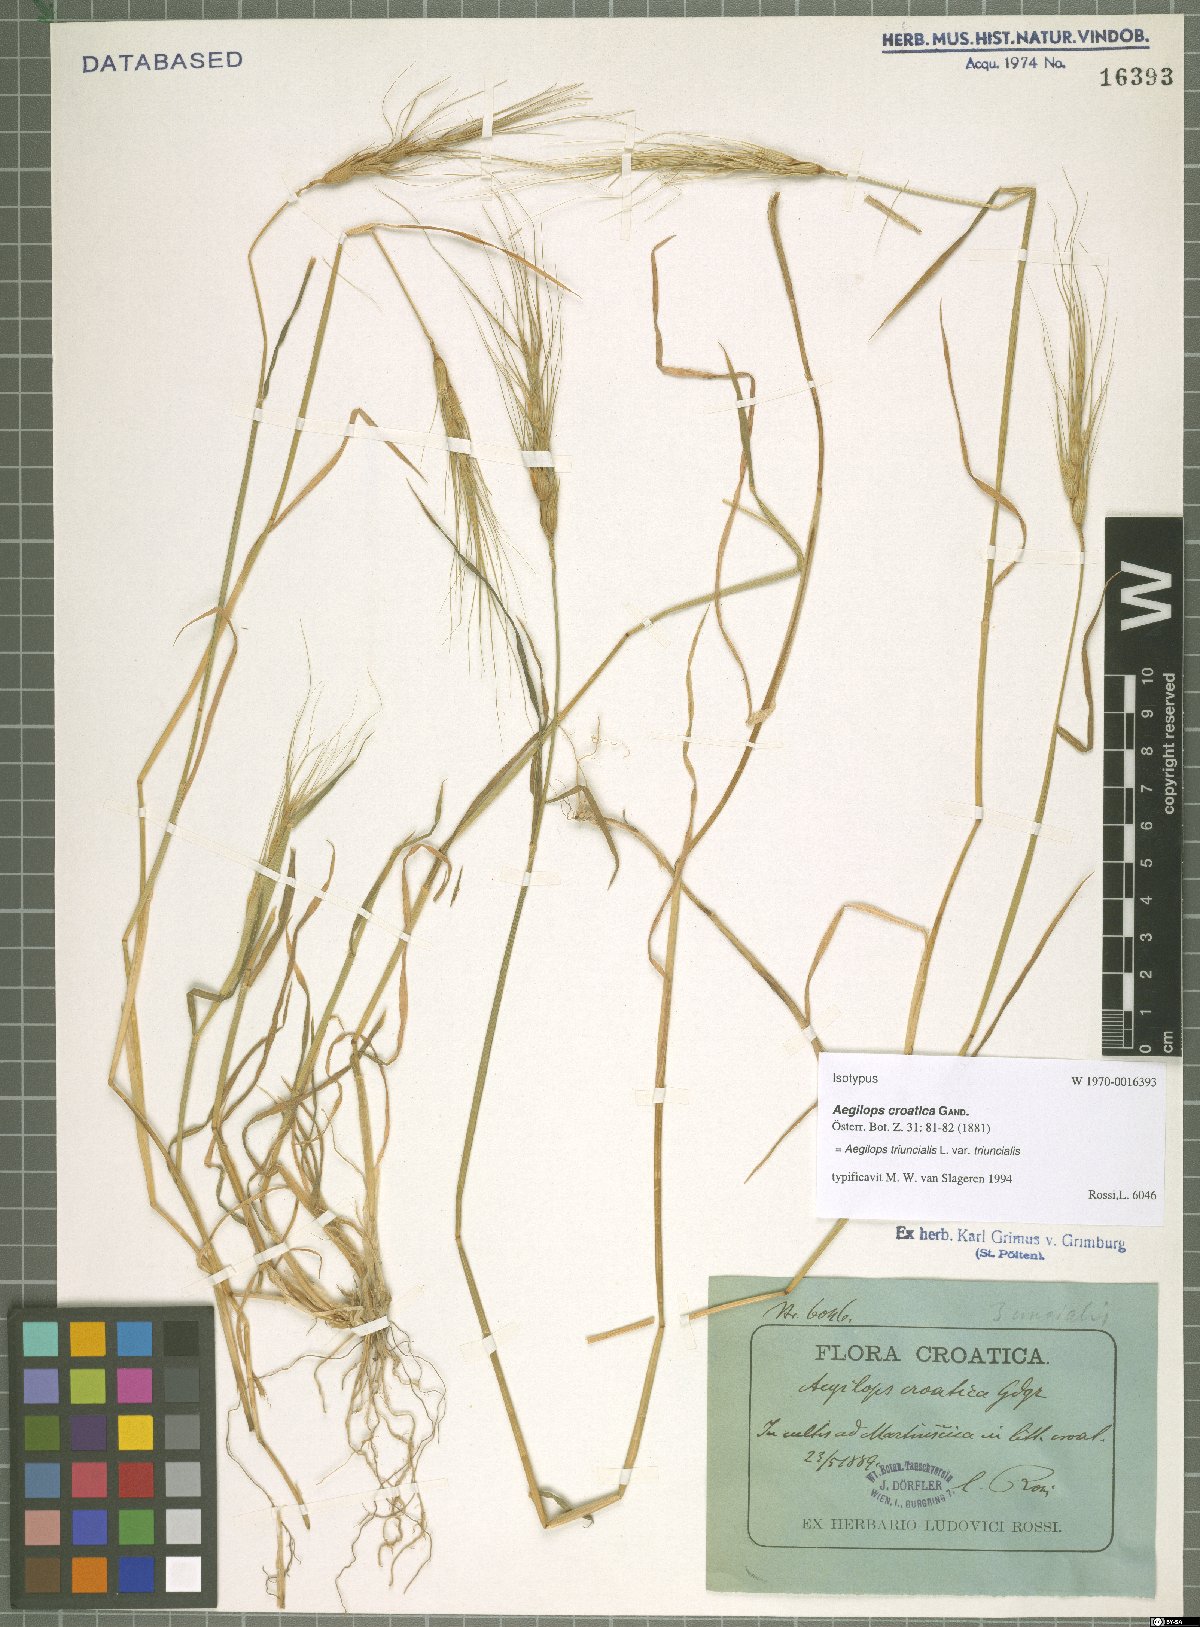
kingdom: Plantae
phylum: Tracheophyta
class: Liliopsida
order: Poales
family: Poaceae
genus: Aegilops
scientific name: Aegilops triuncialis
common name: Barb goat grass
